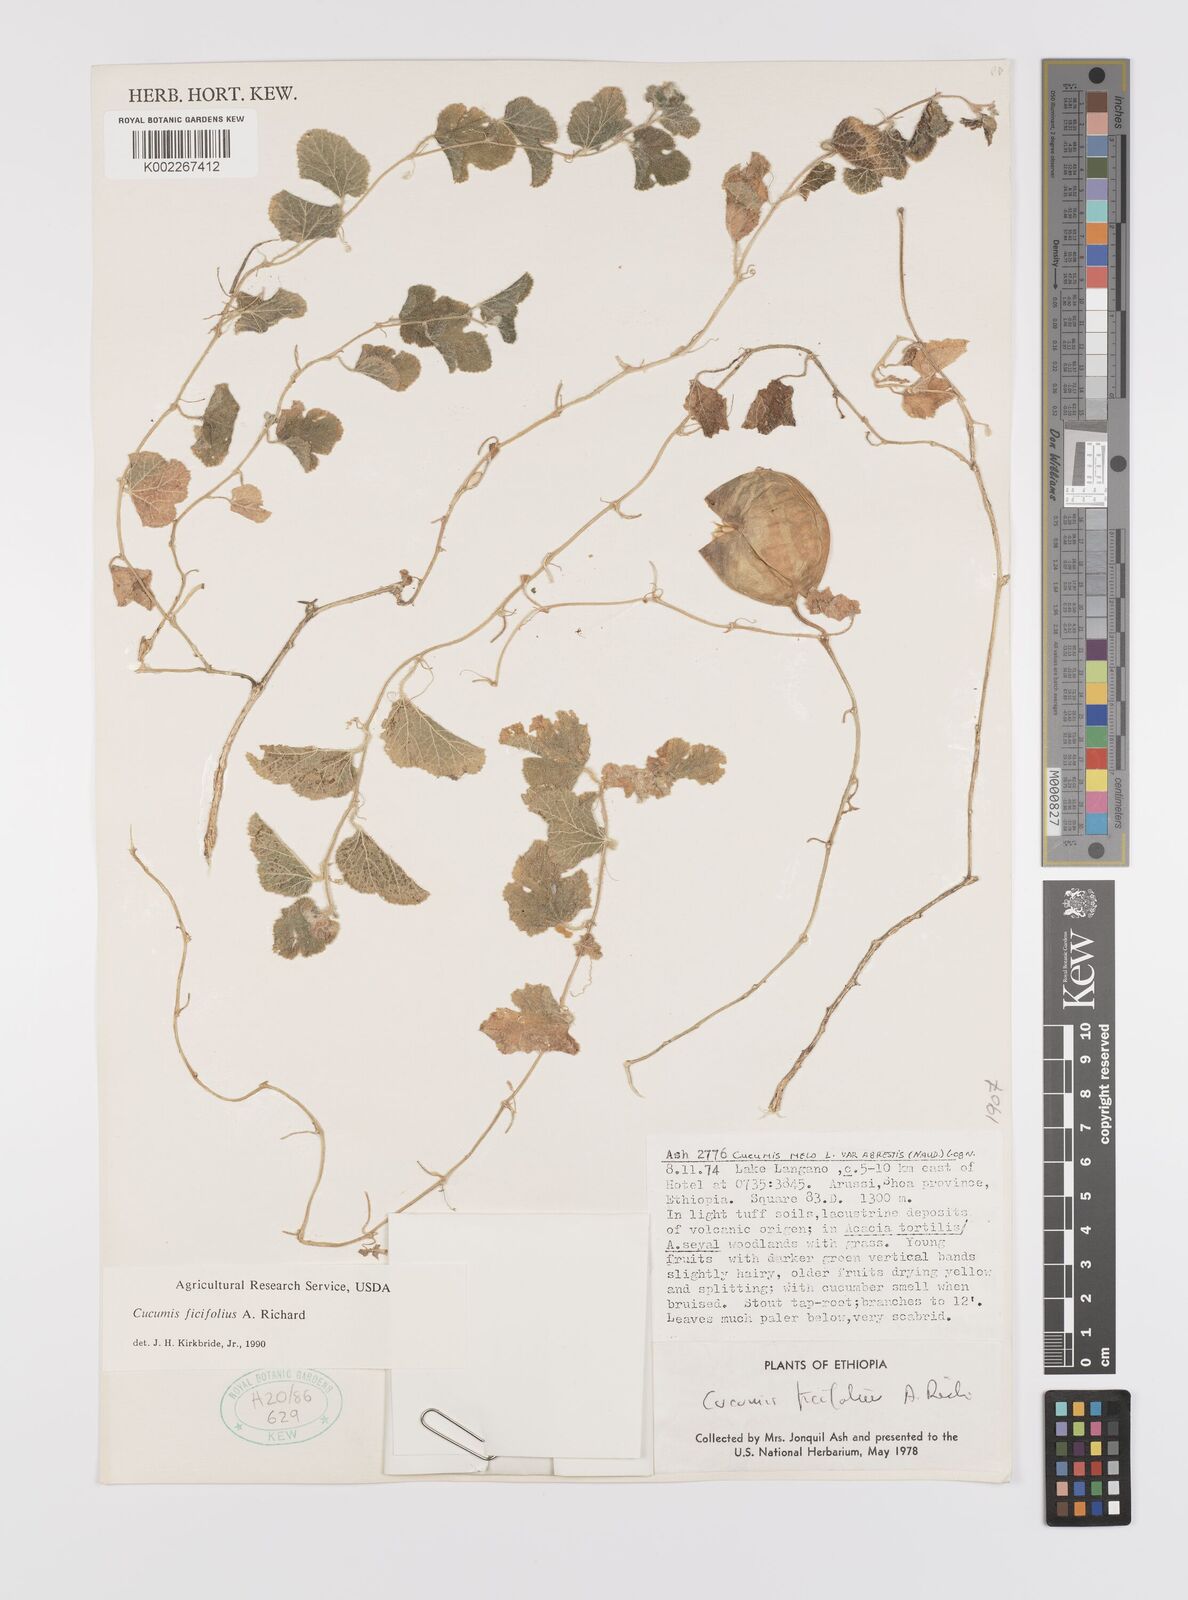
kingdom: Plantae
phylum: Tracheophyta
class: Magnoliopsida
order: Cucurbitales
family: Cucurbitaceae
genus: Cucumis
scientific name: Cucumis ficifolius
